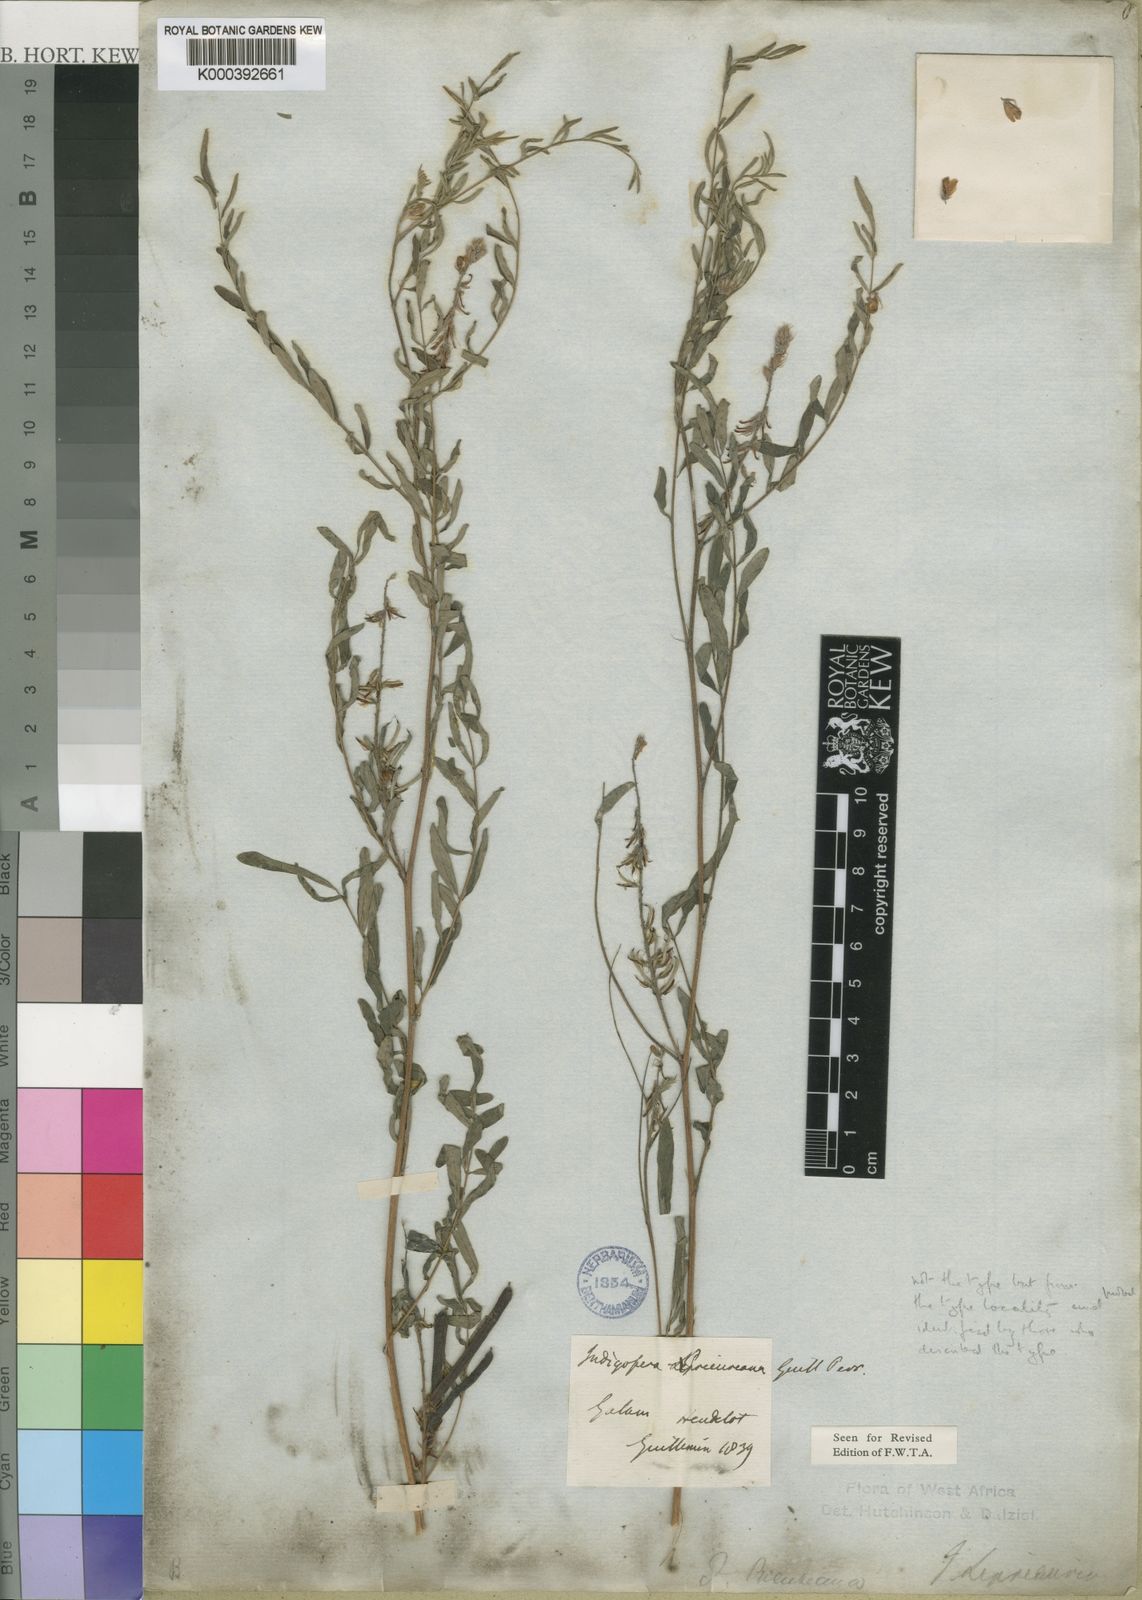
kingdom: Plantae
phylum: Tracheophyta
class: Magnoliopsida
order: Fabales
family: Fabaceae
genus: Indigofera
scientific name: Indigofera prieureana
